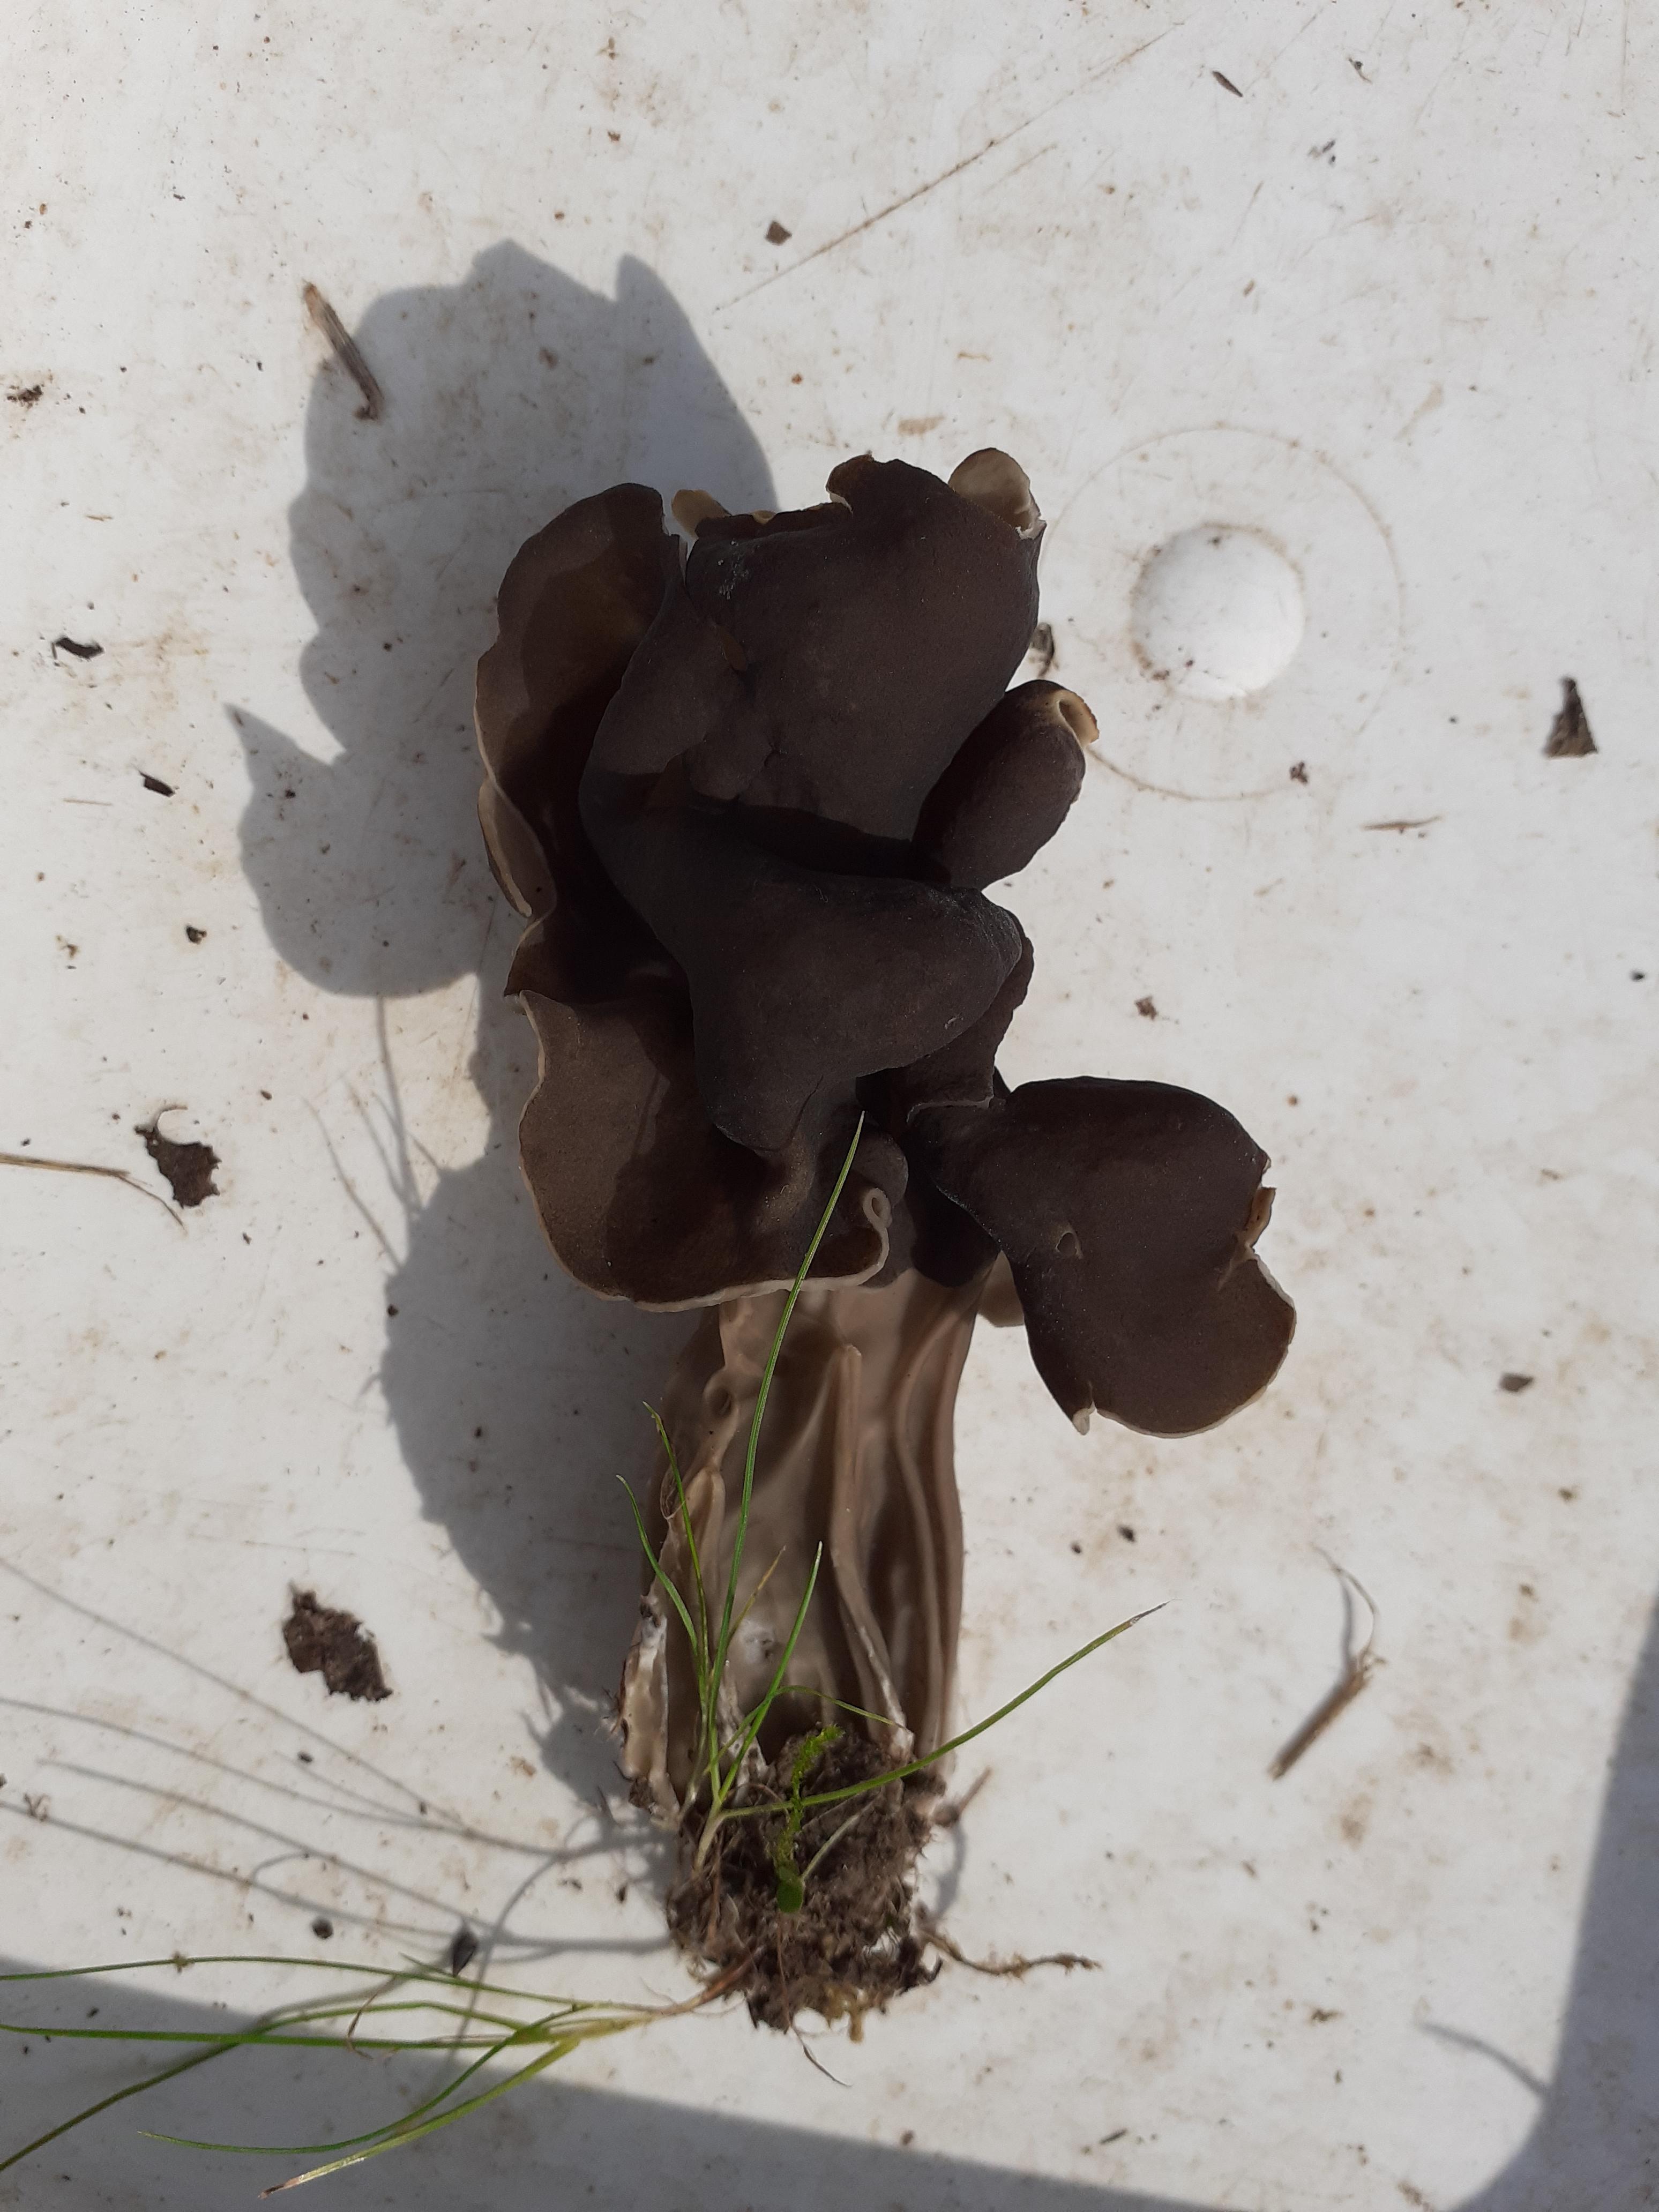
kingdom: Fungi
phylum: Ascomycota
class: Pezizomycetes
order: Pezizales
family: Helvellaceae
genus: Helvella
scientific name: Helvella lacunosa
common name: grubet foldhat
